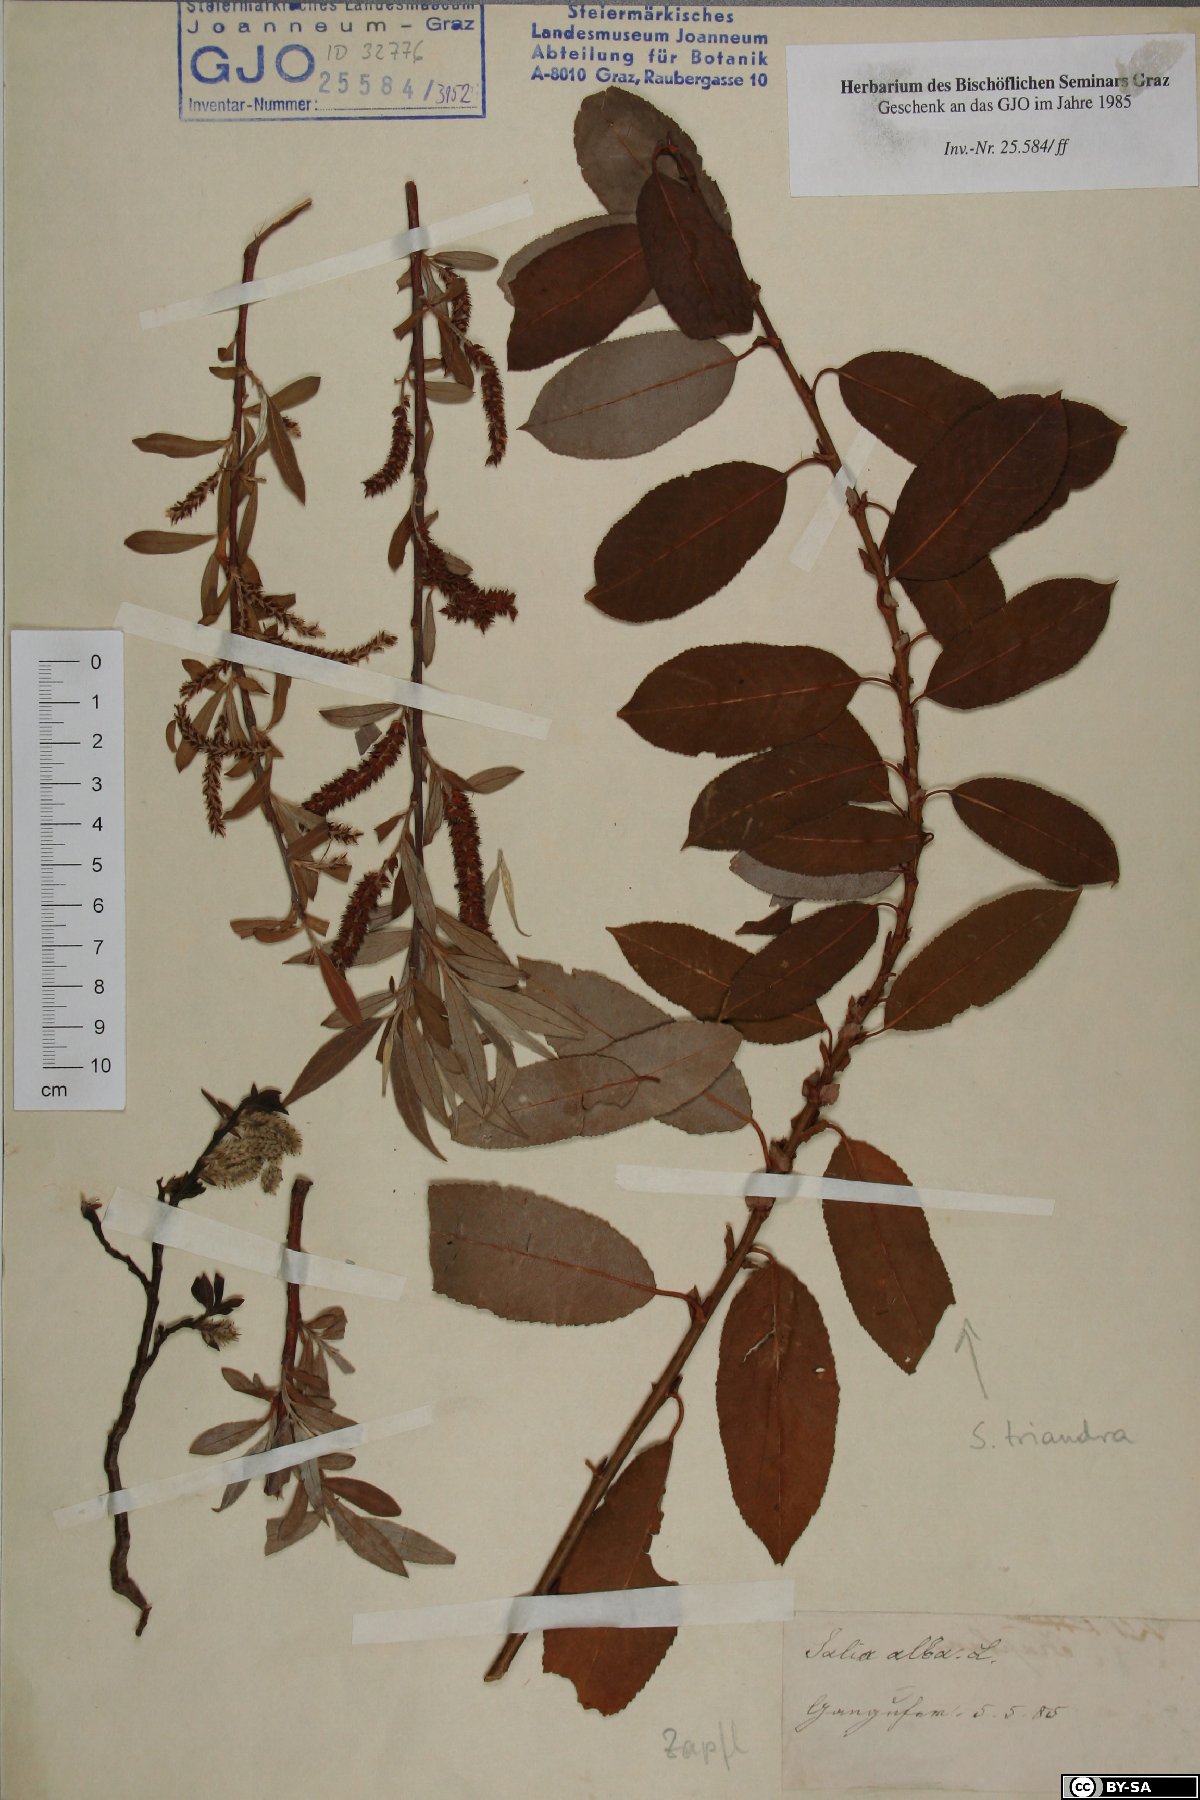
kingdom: Plantae
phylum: Tracheophyta
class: Magnoliopsida
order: Malpighiales
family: Salicaceae
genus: Salix
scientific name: Salix alba
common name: White willow
